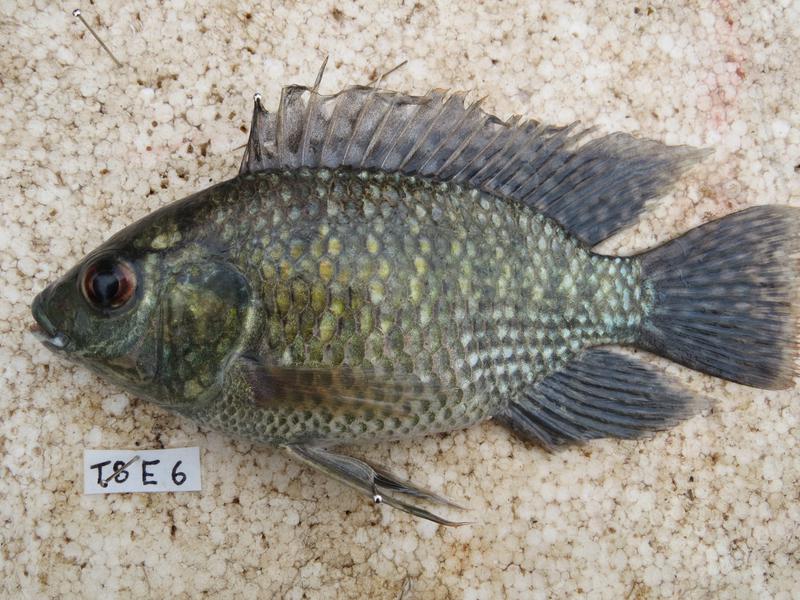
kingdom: Animalia
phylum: Chordata
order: Perciformes
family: Cichlidae
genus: Oreochromis
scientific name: Oreochromis leucostictus
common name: Blue spotted tilapia
